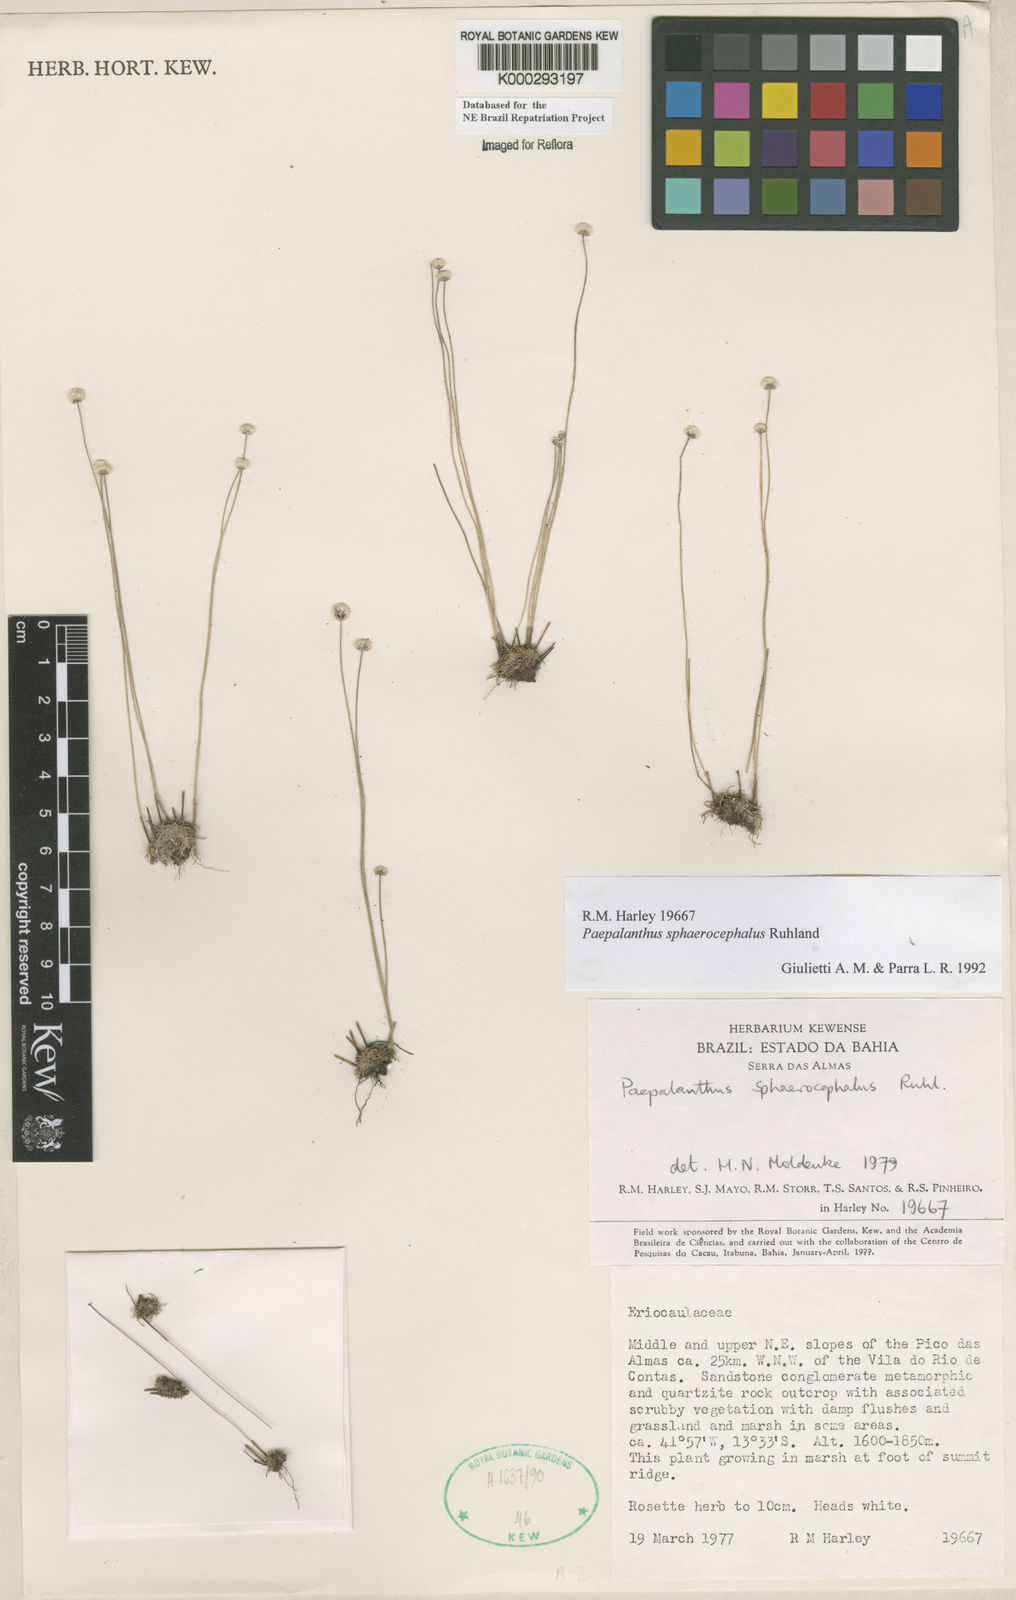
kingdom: Plantae
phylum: Tracheophyta
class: Liliopsida
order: Poales
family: Eriocaulaceae
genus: Paepalanthus
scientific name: Paepalanthus sphaerocephalus
